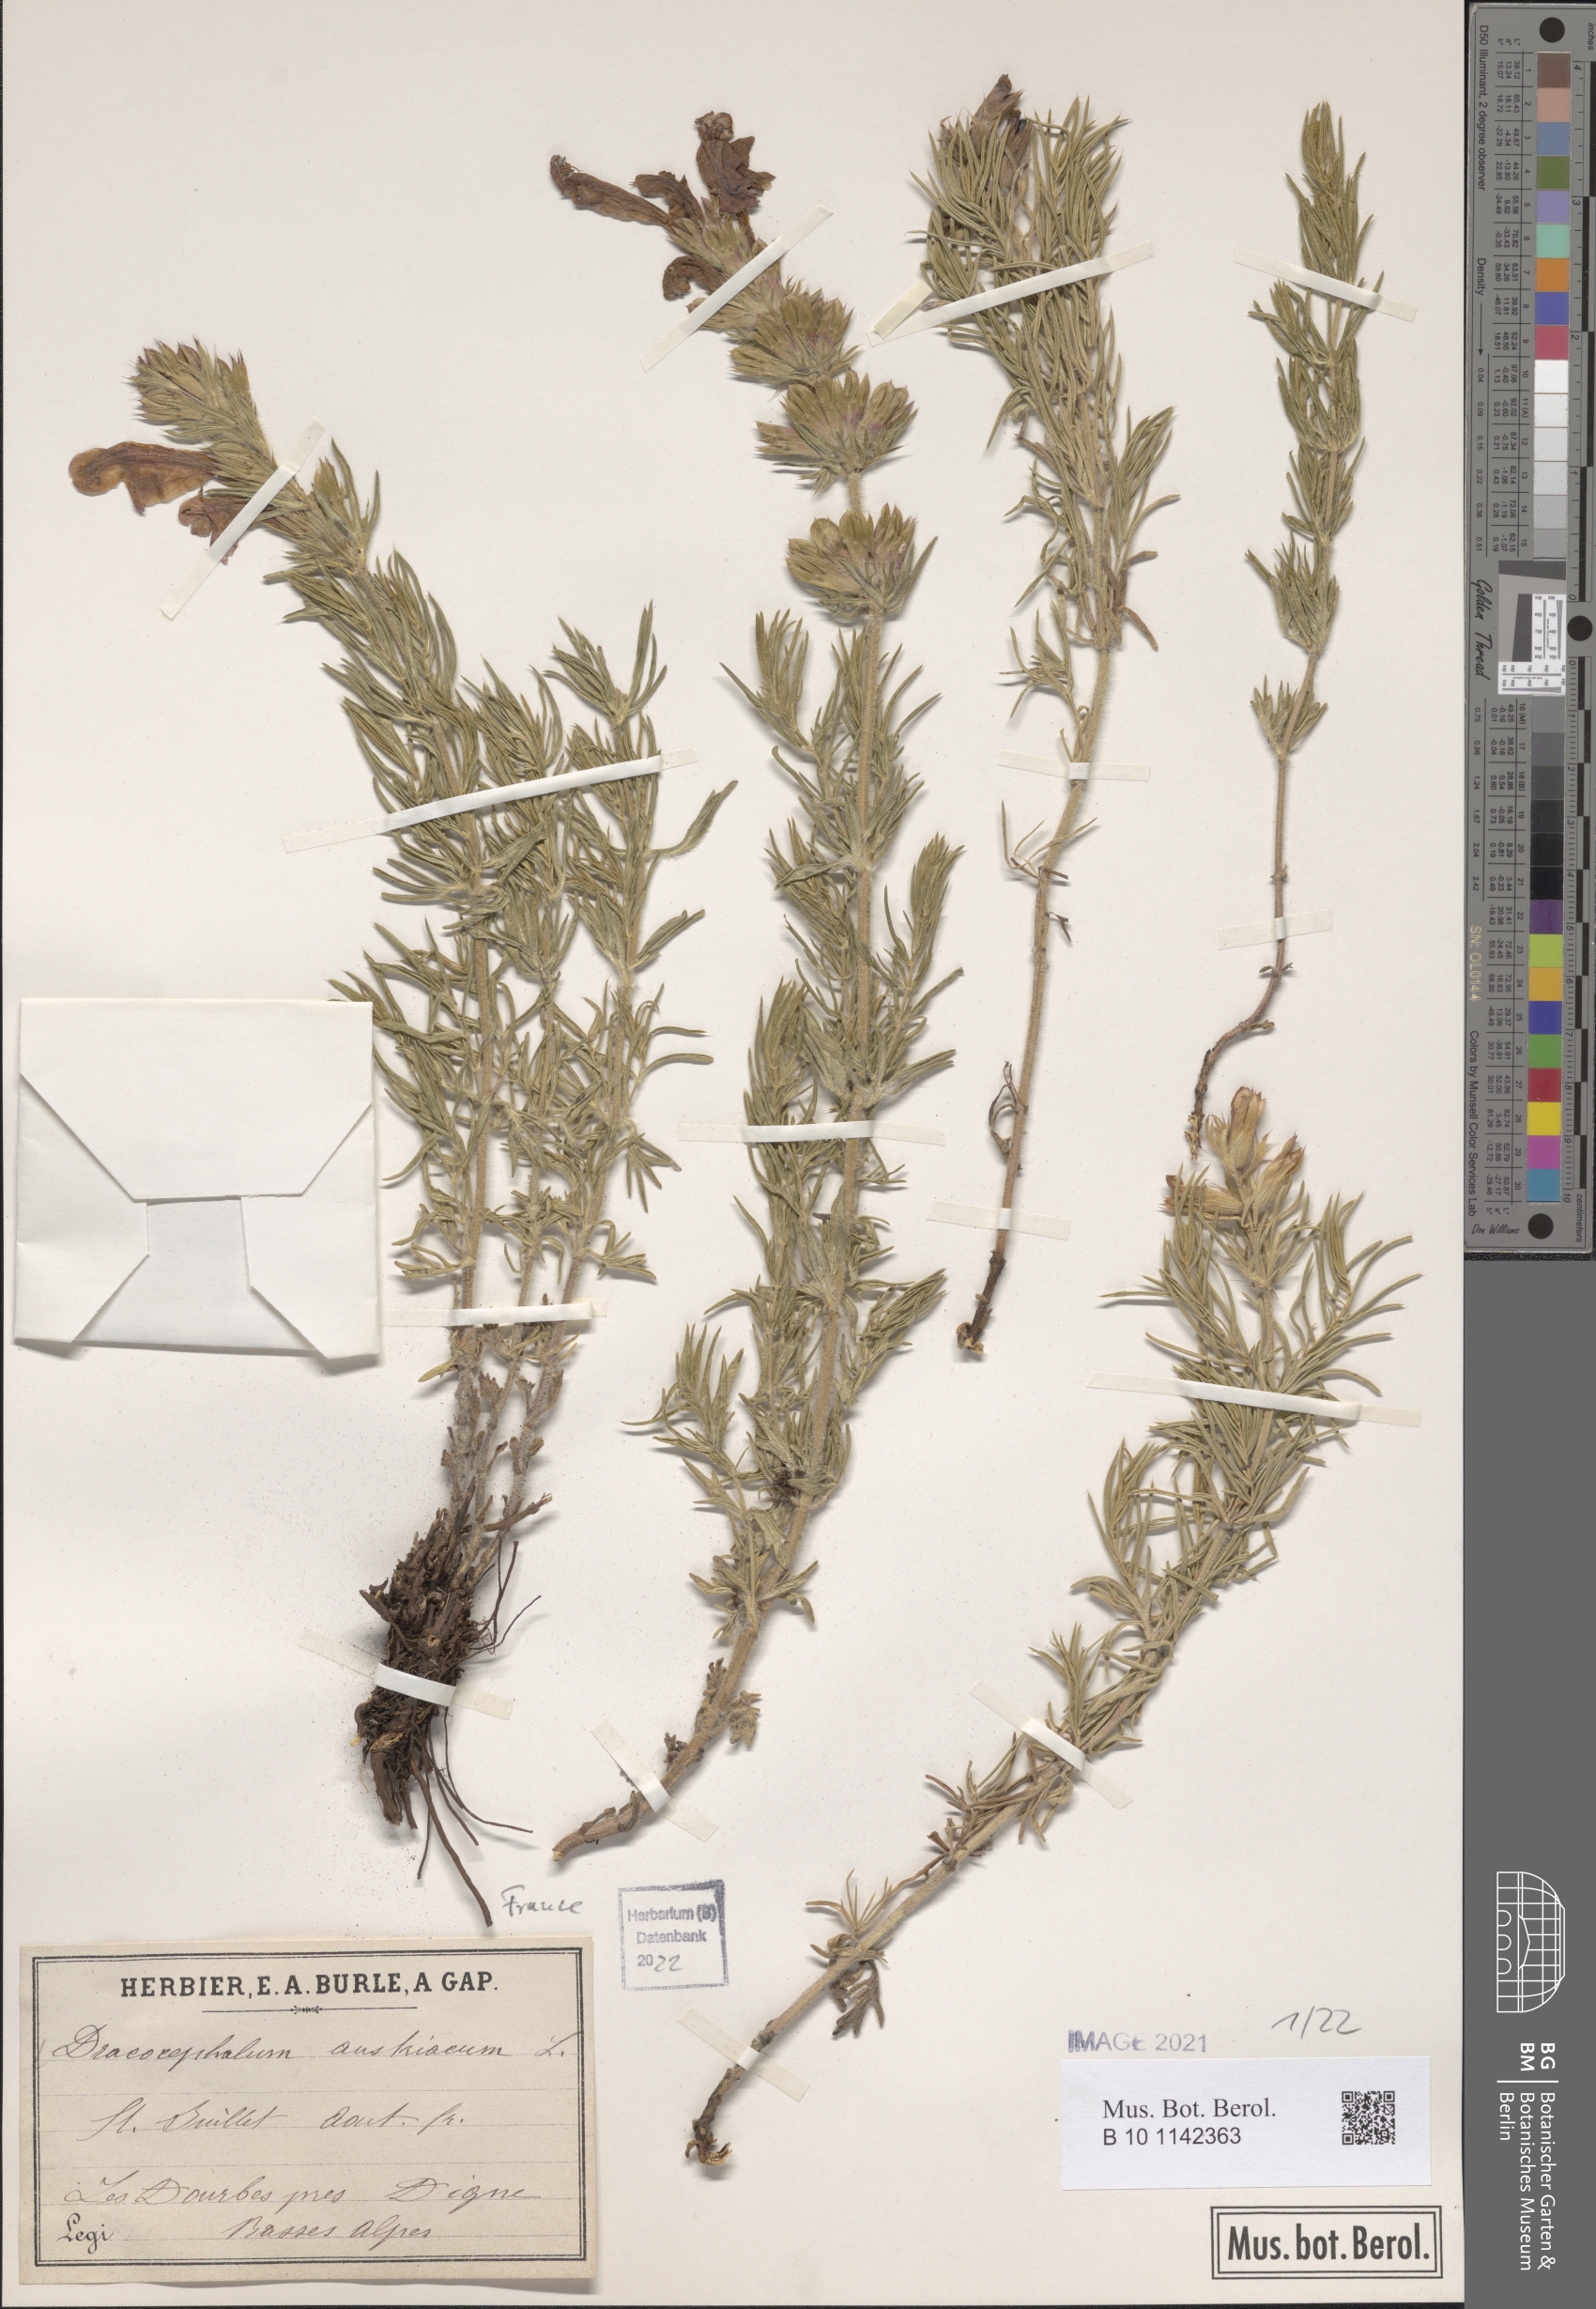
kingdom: Plantae
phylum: Tracheophyta
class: Magnoliopsida
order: Lamiales
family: Lamiaceae
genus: Dracocephalum
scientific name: Dracocephalum austriacum
